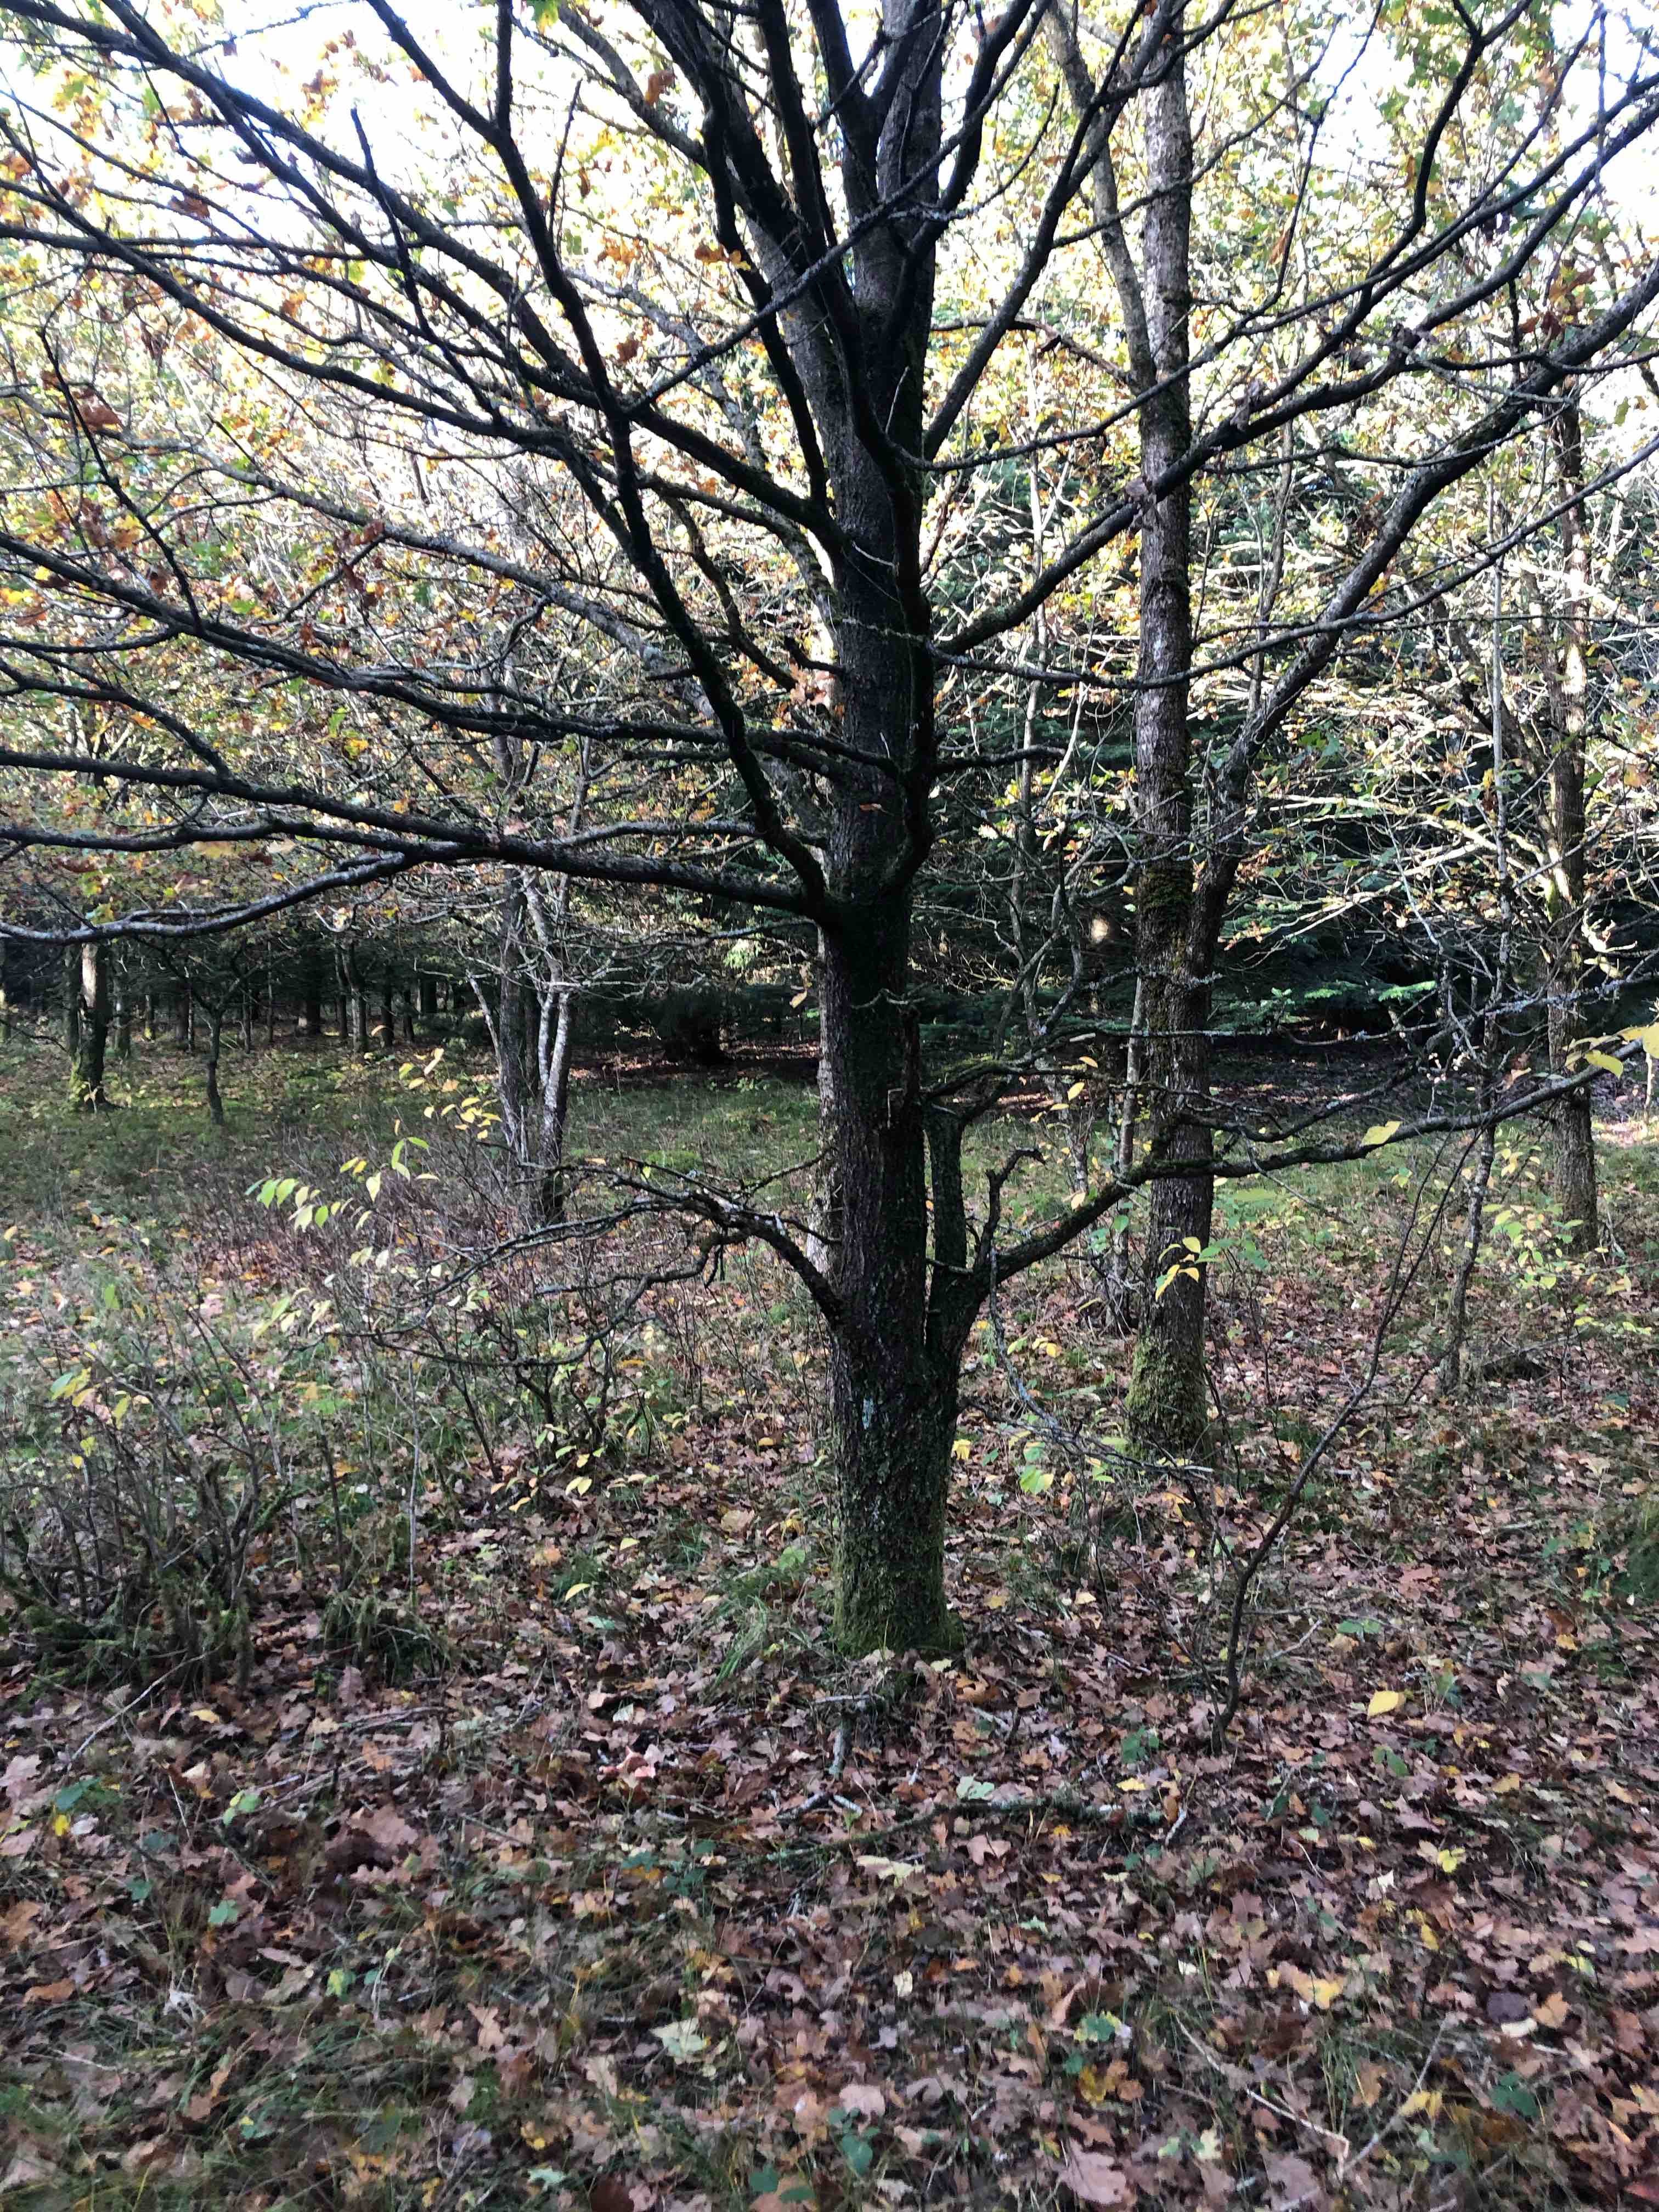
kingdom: Fungi
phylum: Basidiomycota
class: Agaricomycetes
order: Agaricales
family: Cortinariaceae
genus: Cortinarius
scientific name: Cortinarius bolaris
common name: cinnoberskællet slørhat
